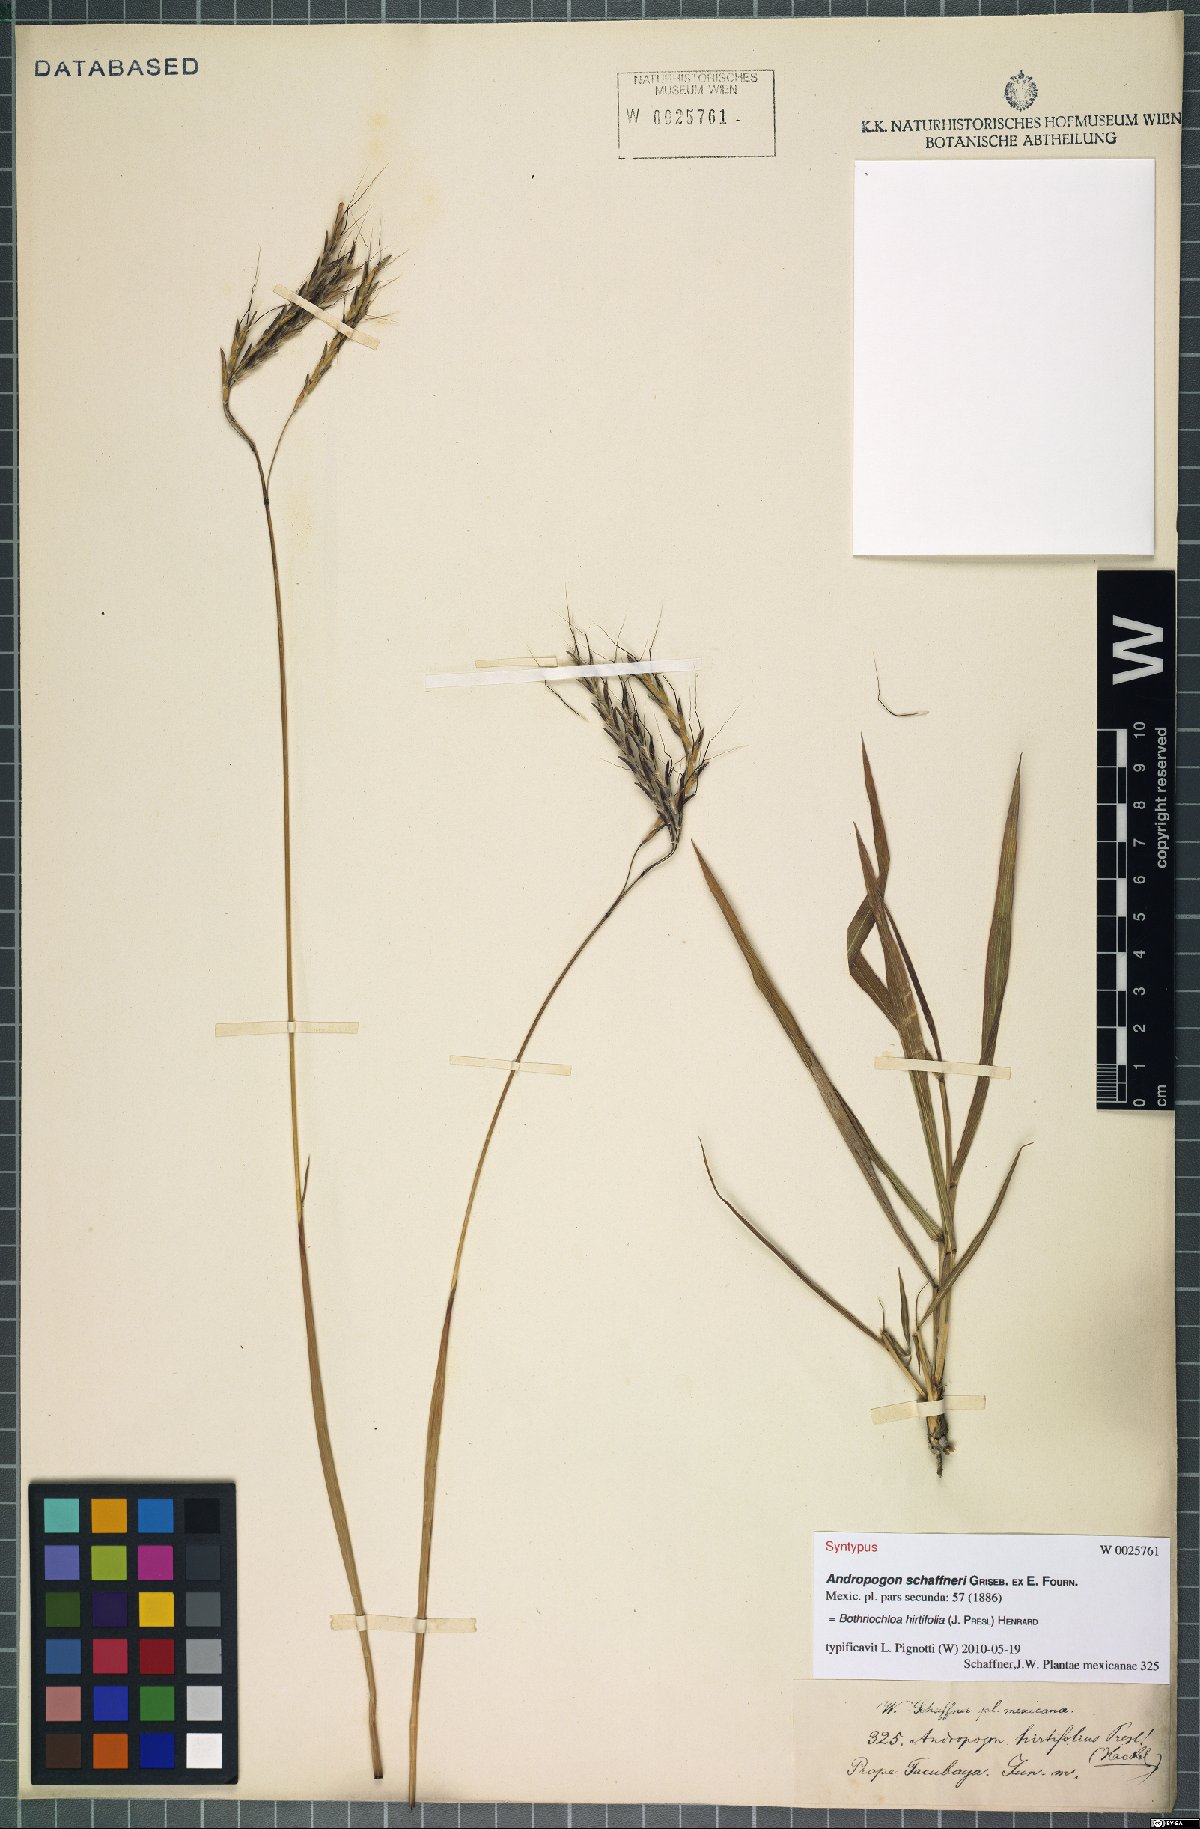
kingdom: Plantae
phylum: Tracheophyta
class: Liliopsida
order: Poales
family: Poaceae
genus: Bothriochloa
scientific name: Bothriochloa hirtifolia
